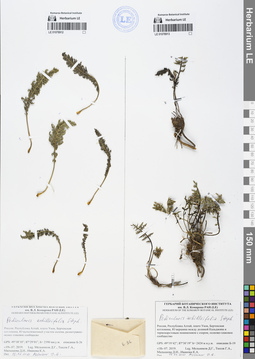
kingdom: Plantae
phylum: Tracheophyta
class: Magnoliopsida
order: Lamiales
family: Orobanchaceae
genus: Pedicularis
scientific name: Pedicularis achilleifolia
